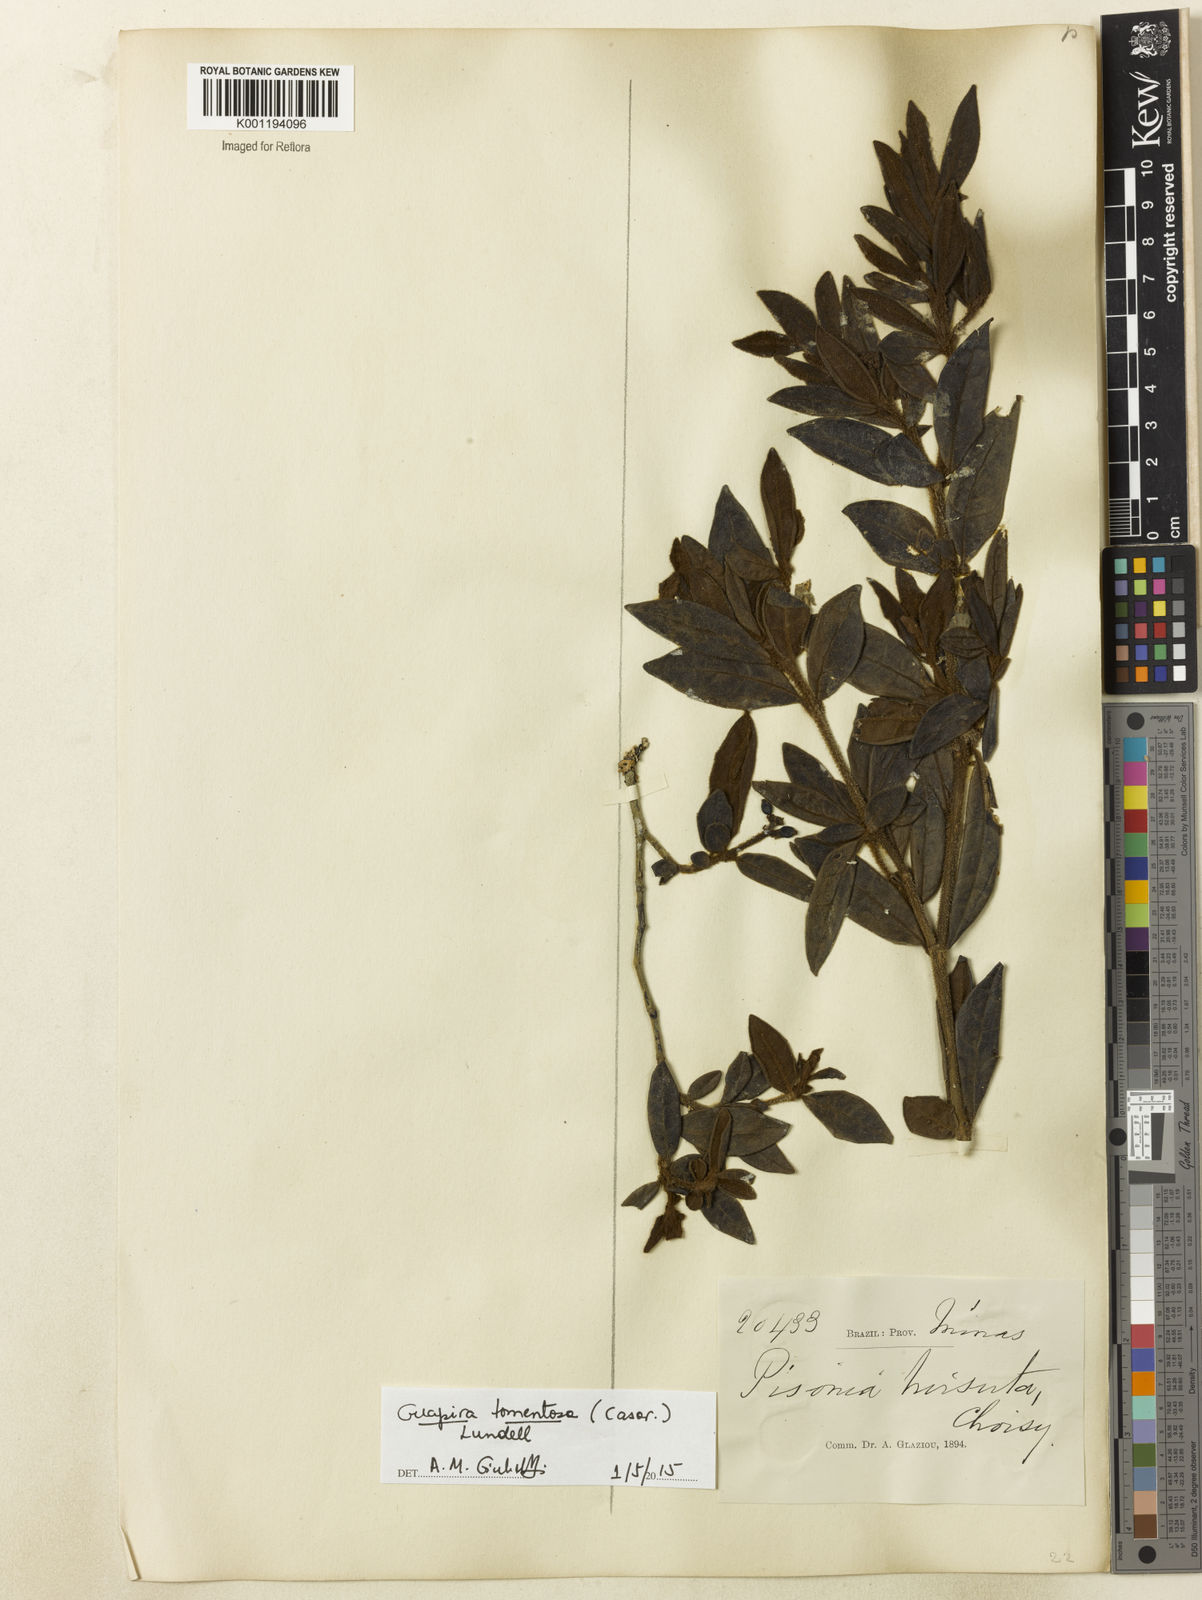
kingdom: Plantae
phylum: Tracheophyta
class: Magnoliopsida
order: Caryophyllales
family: Nyctaginaceae
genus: Guapira
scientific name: Guapira tomentosa
